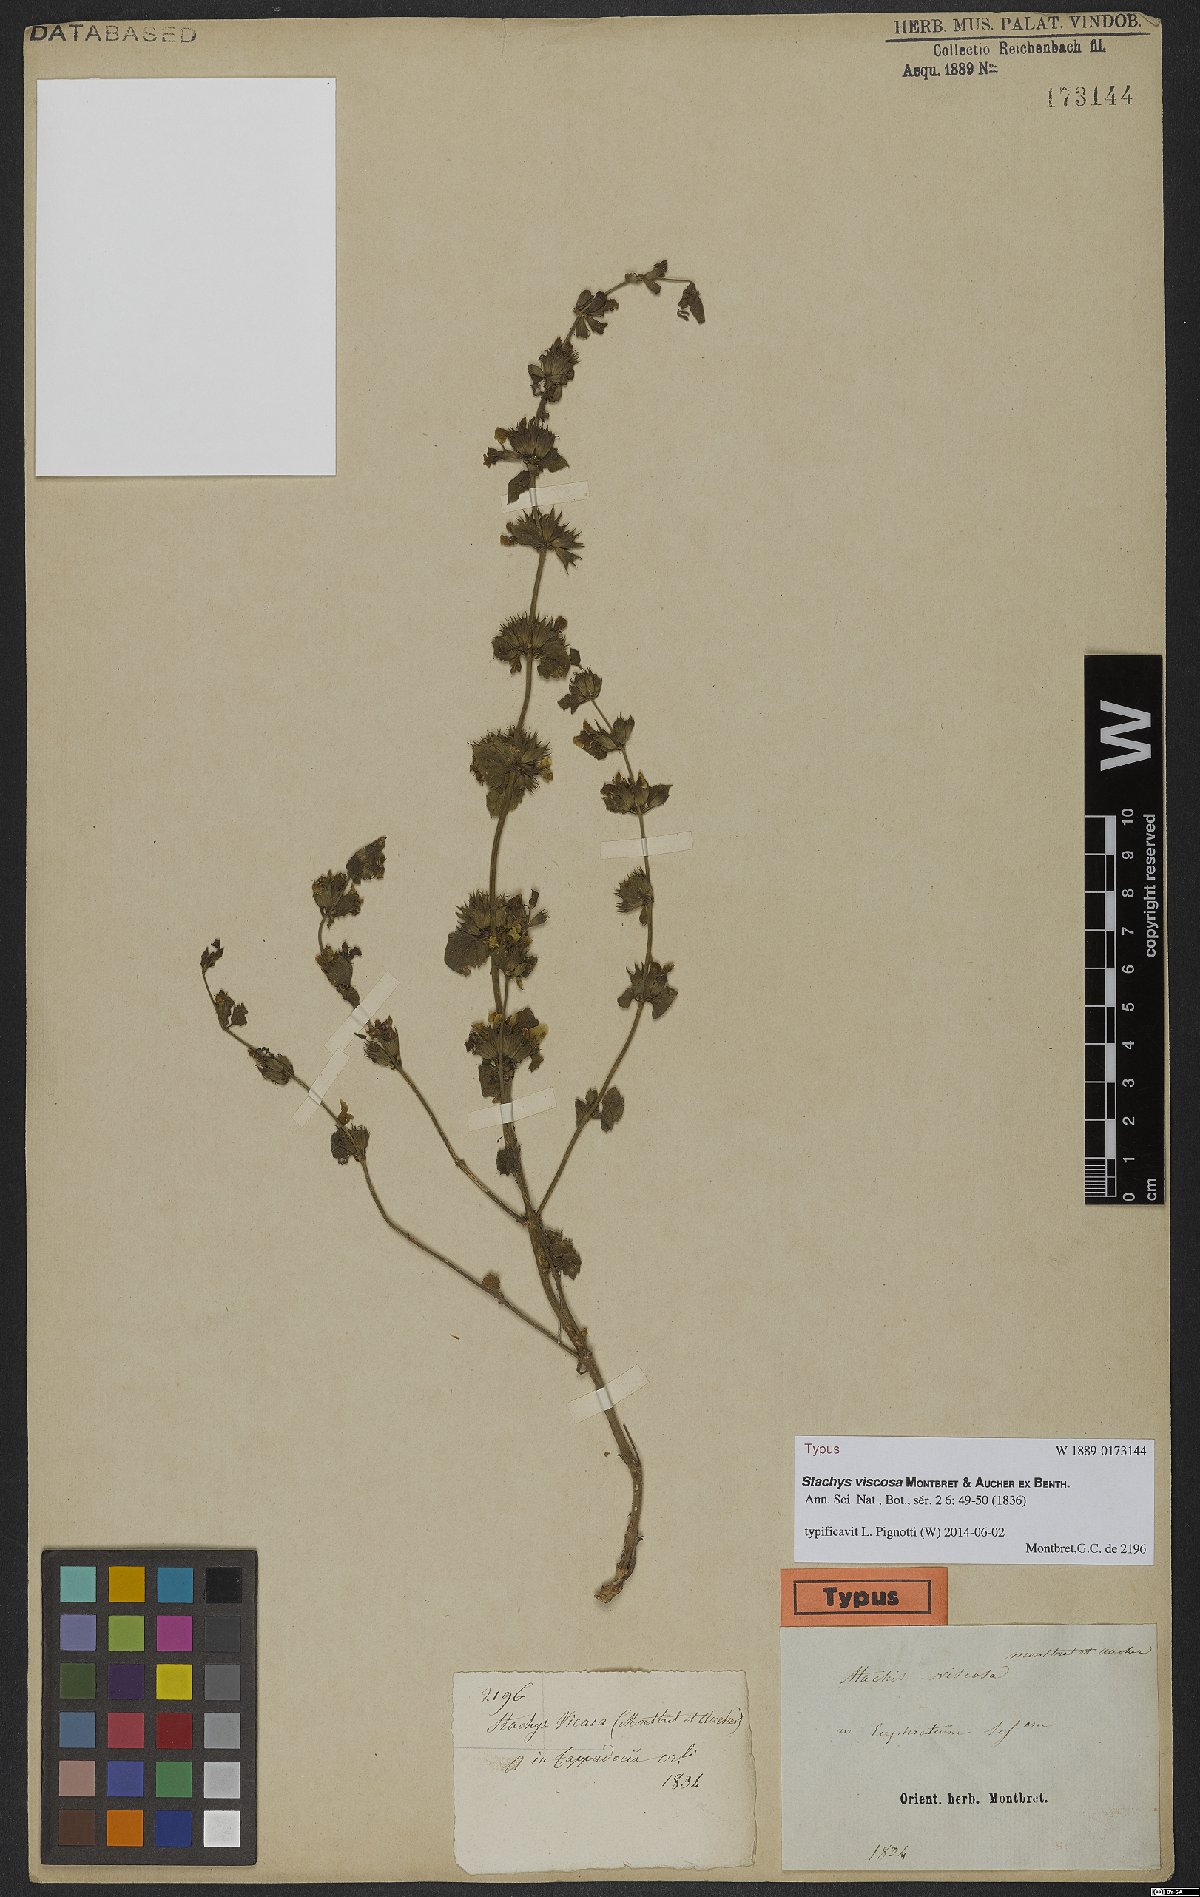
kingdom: Plantae
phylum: Tracheophyta
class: Magnoliopsida
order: Lamiales
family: Lamiaceae
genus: Stachys
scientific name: Stachys viscosa
